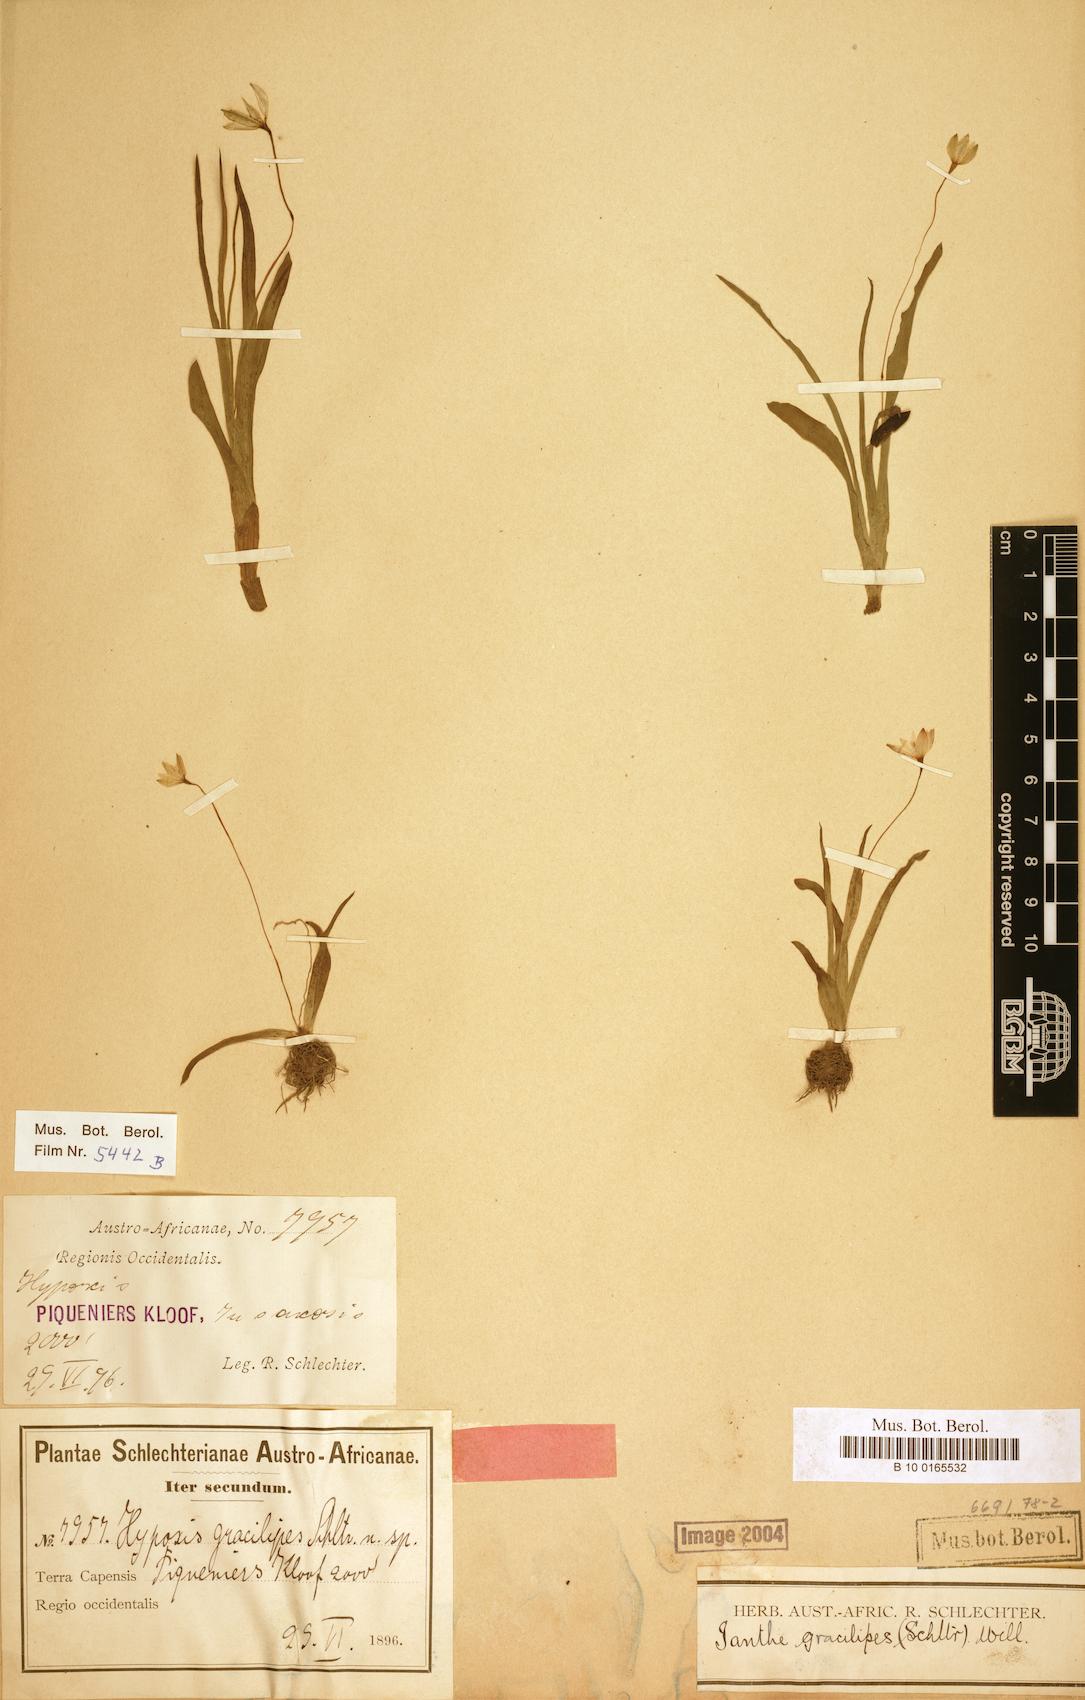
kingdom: Plantae
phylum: Tracheophyta
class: Liliopsida
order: Asparagales
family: Hypoxidaceae
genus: Pauridia
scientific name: Pauridia gracilipes
